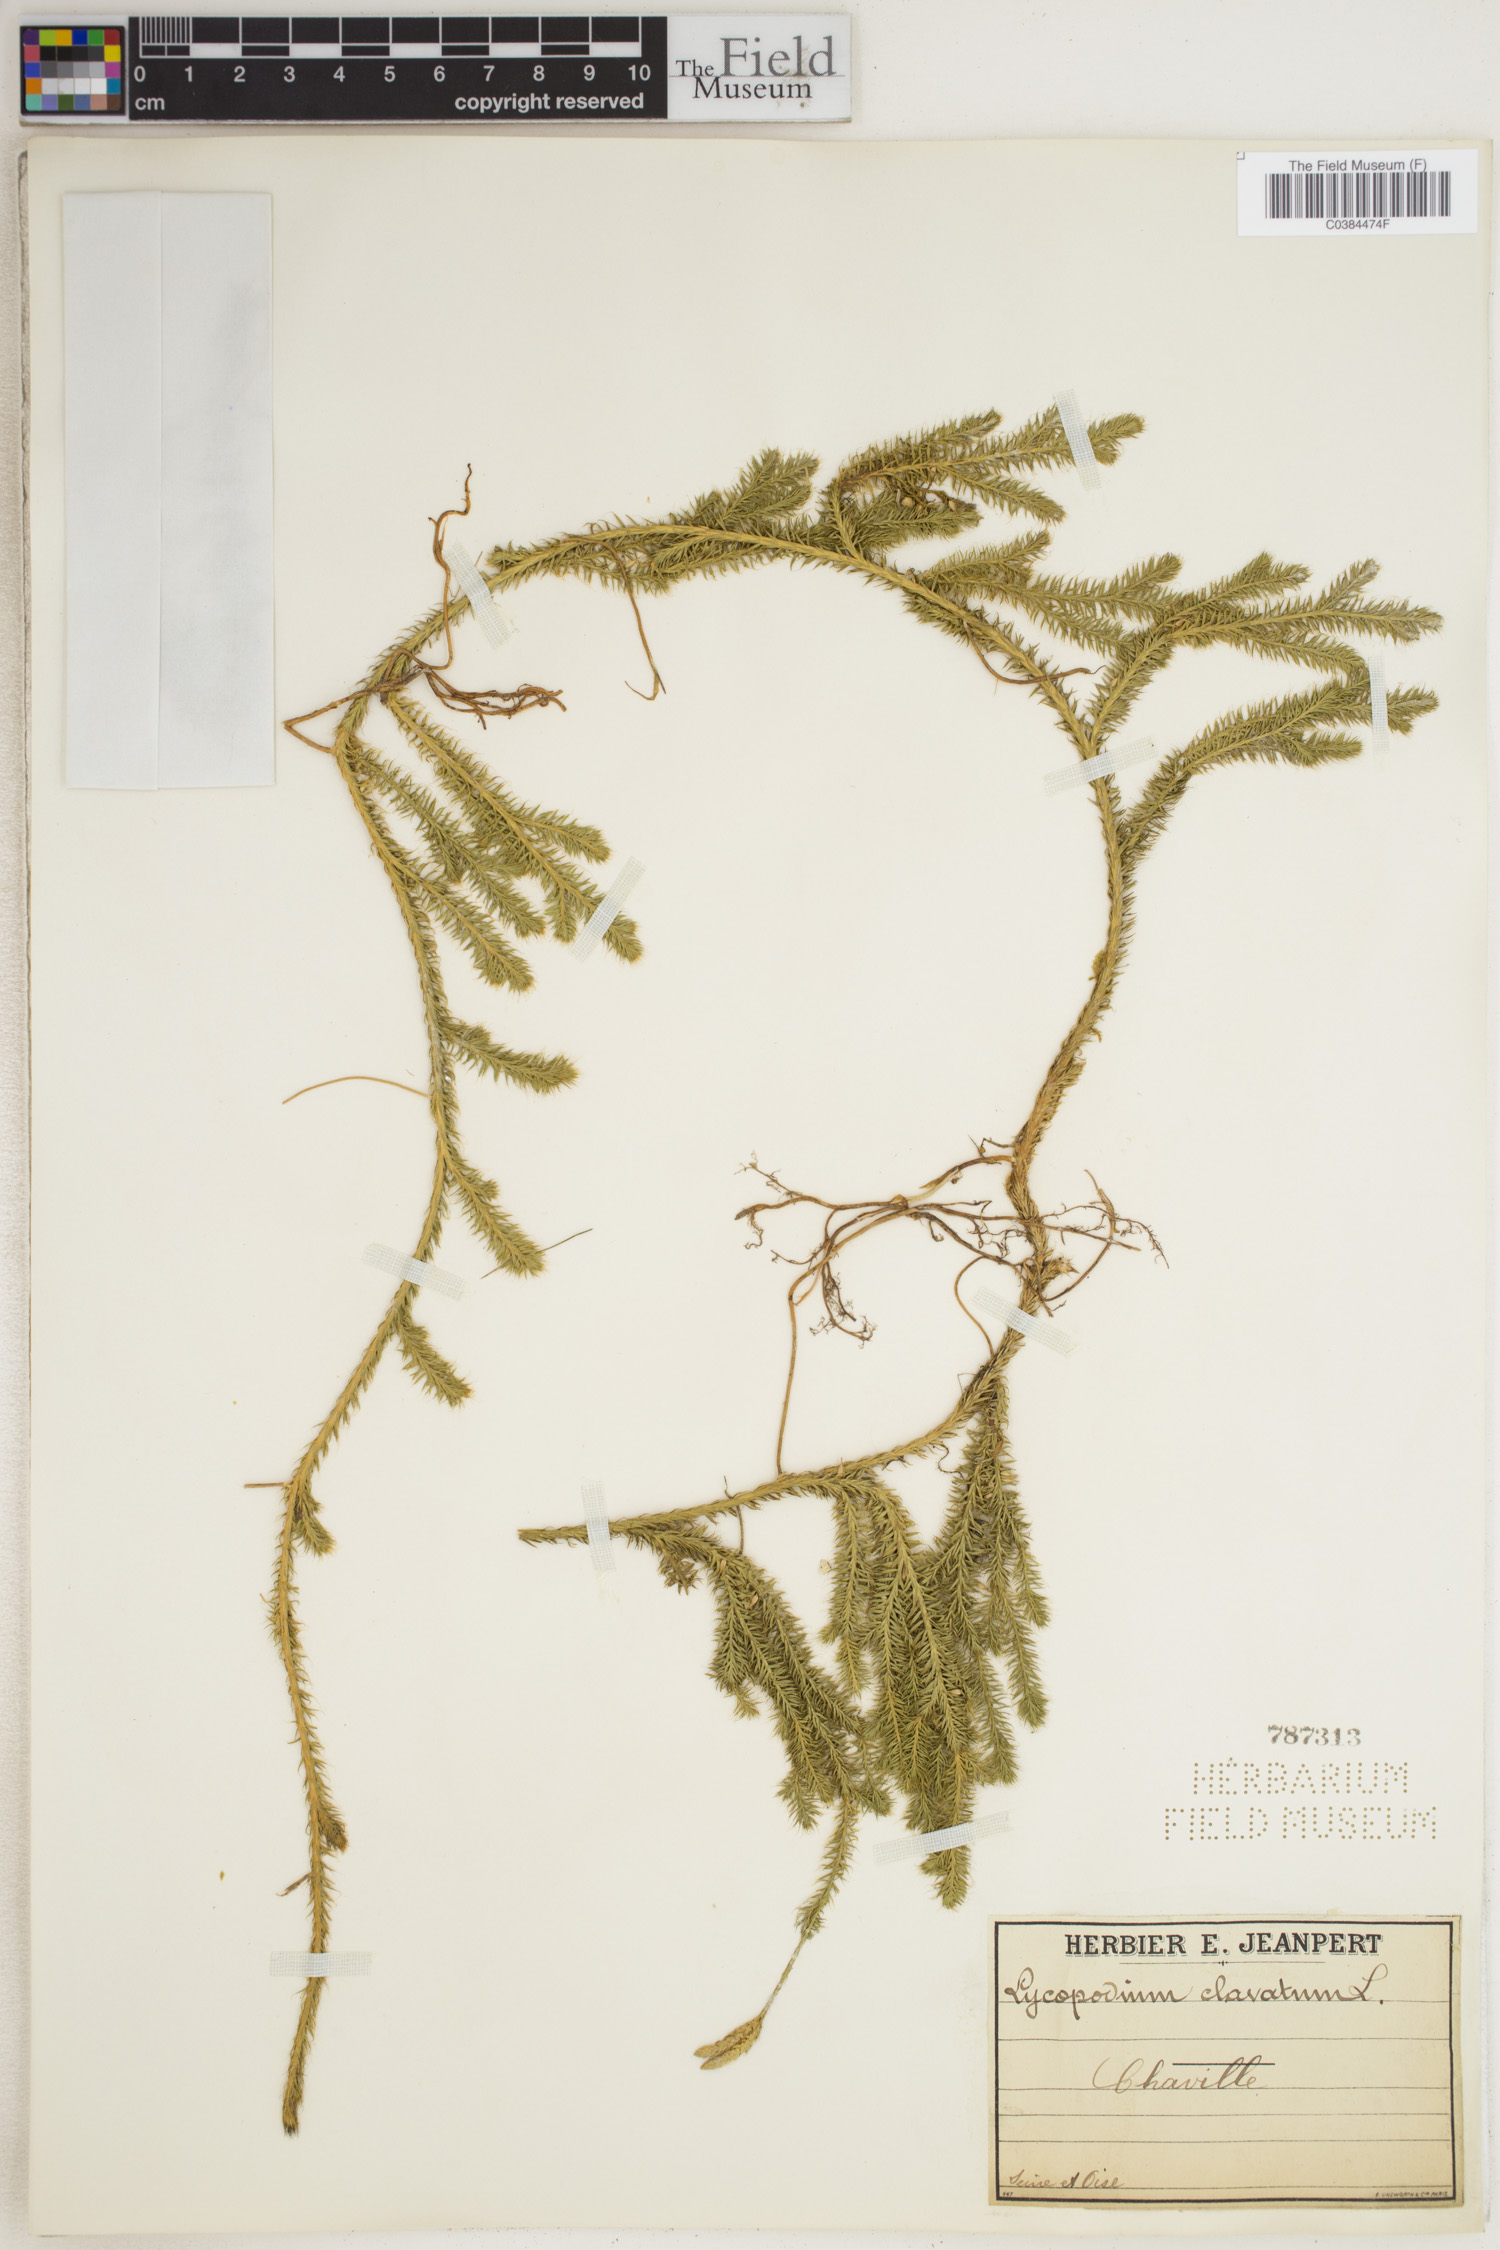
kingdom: Plantae
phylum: Tracheophyta
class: Lycopodiopsida
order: Lycopodiales
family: Lycopodiaceae
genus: Lycopodium
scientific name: Lycopodium clavatum
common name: Stag's-horn clubmoss
